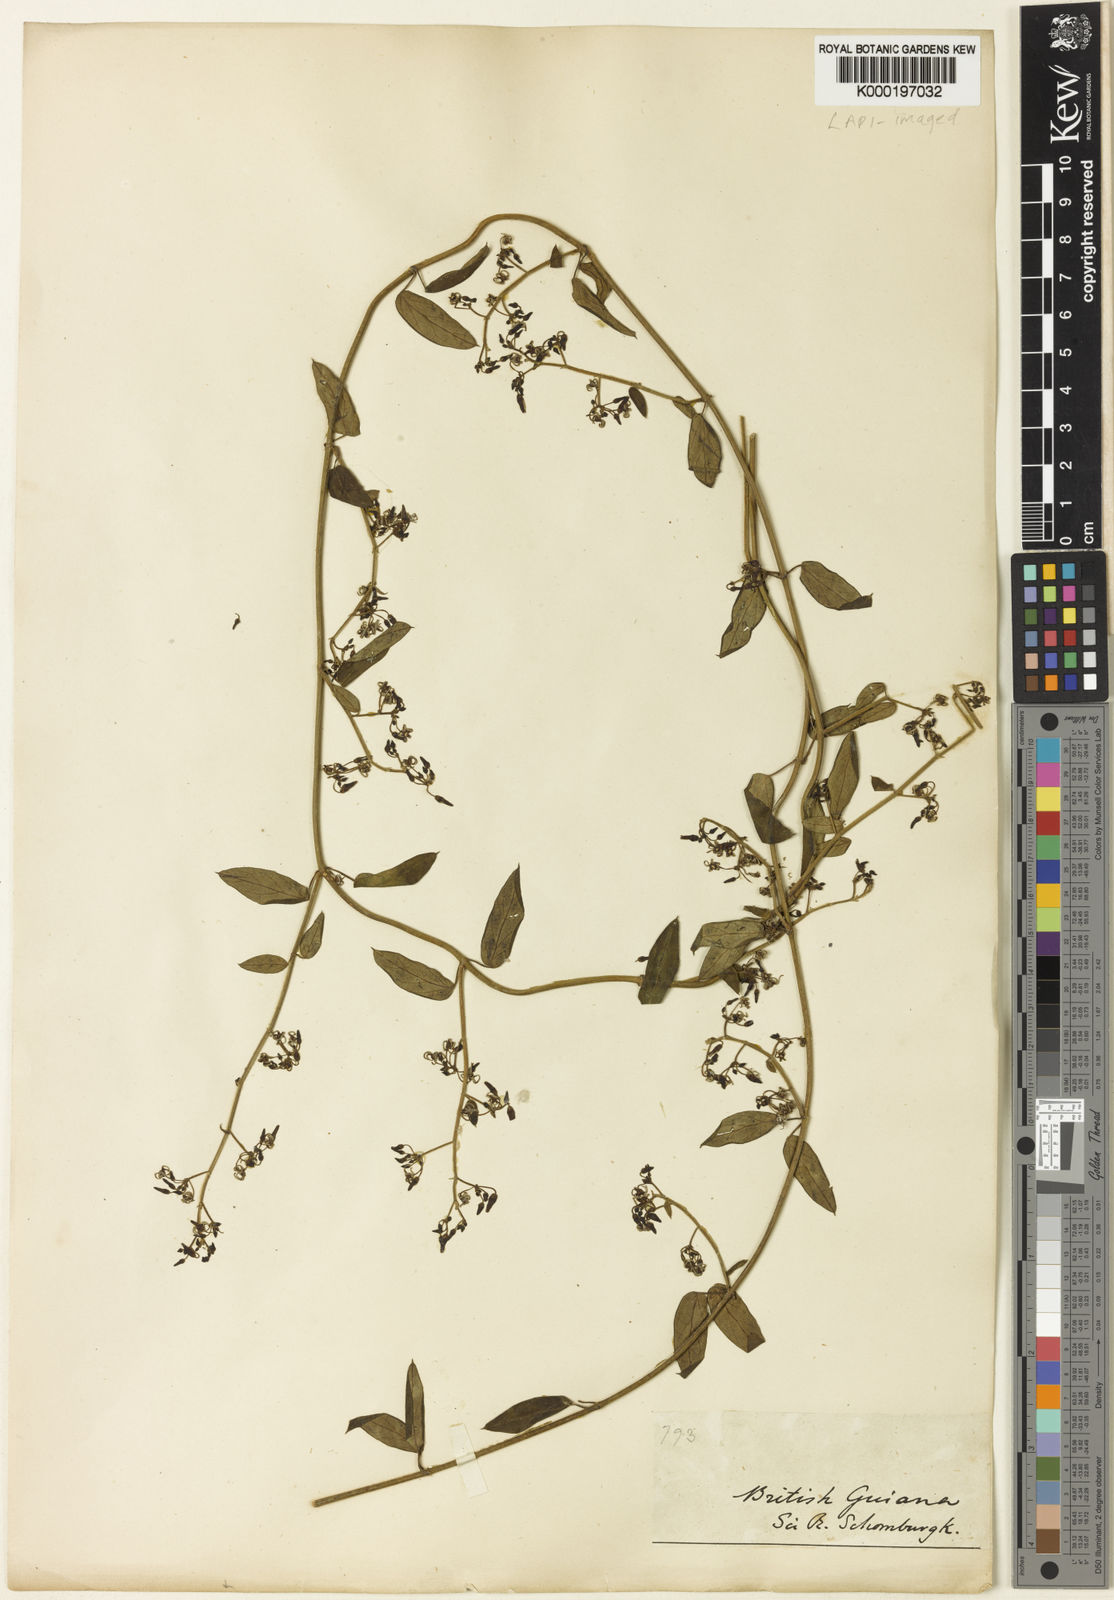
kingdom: Plantae
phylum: Tracheophyta
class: Magnoliopsida
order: Gentianales
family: Apocynaceae
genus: Tassadia
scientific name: Tassadia
